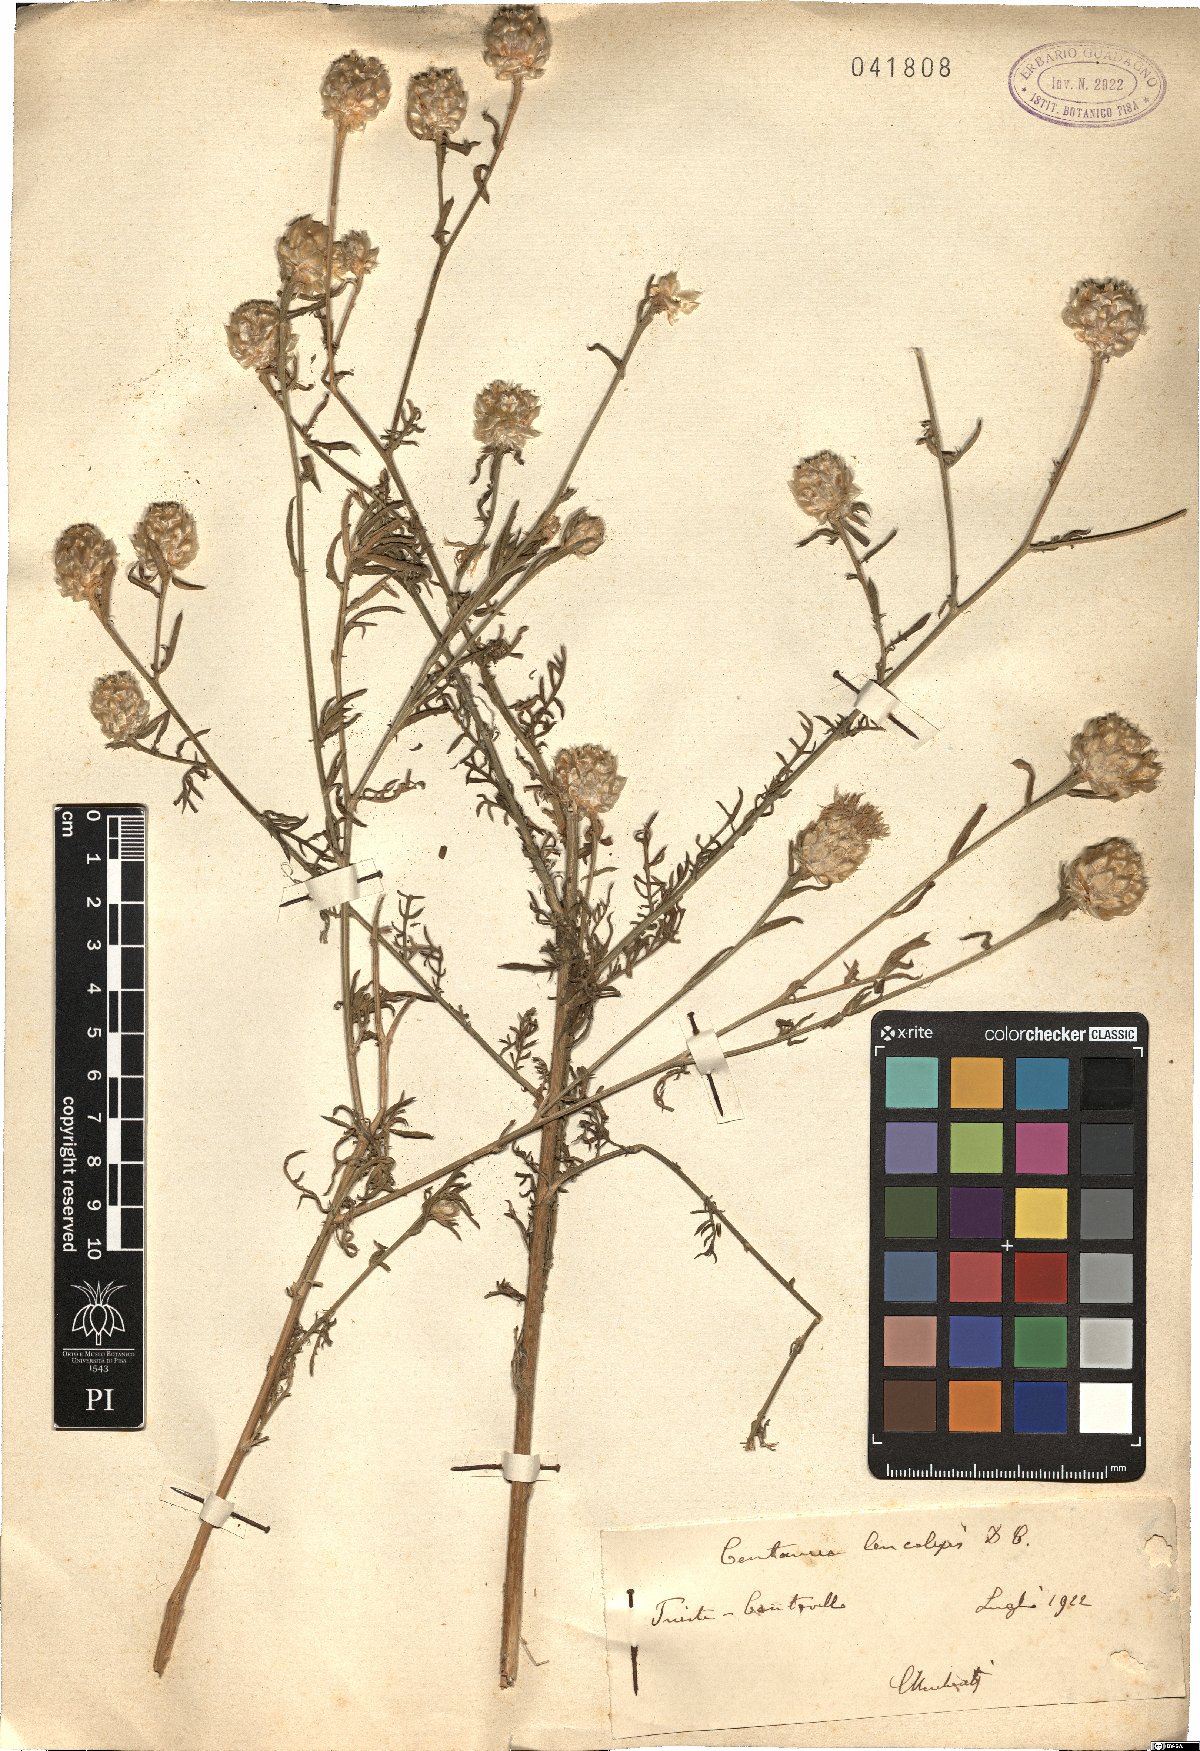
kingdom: Plantae
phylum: Tracheophyta
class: Magnoliopsida
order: Asterales
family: Asteraceae
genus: Centaurea
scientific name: Centaurea deusta
